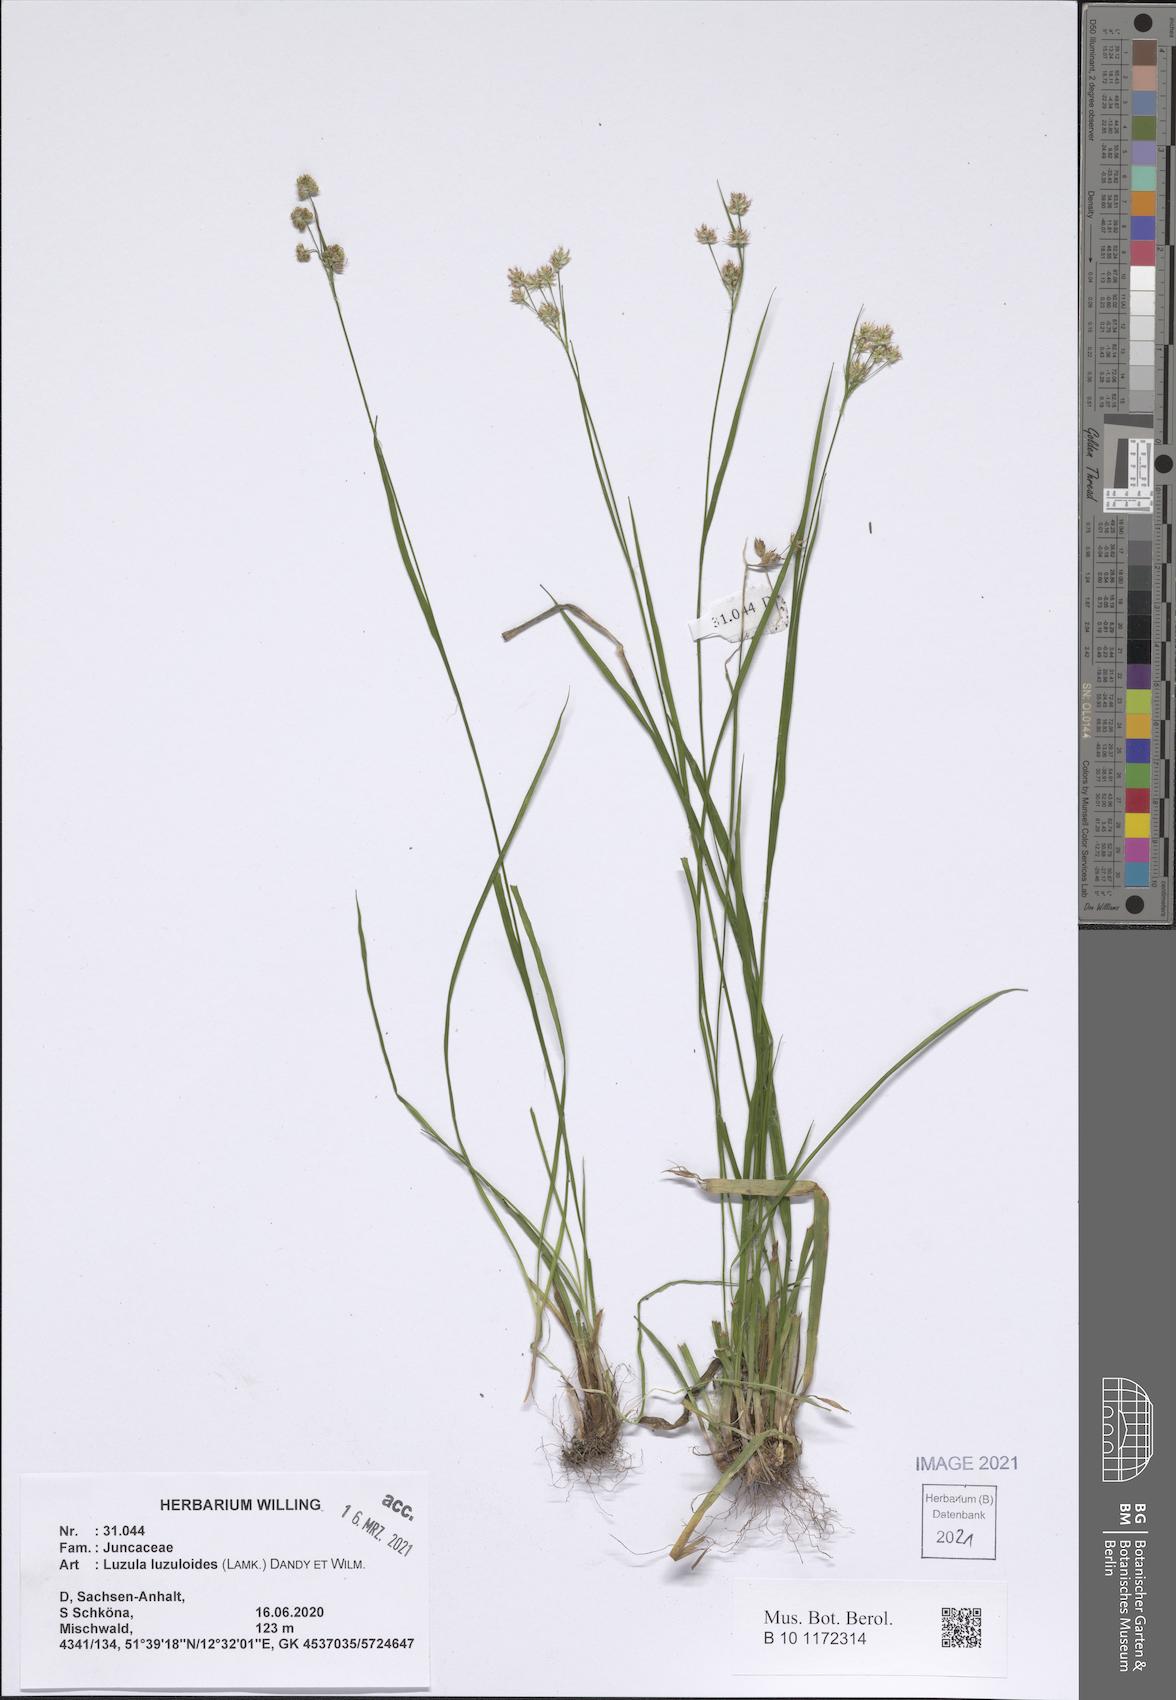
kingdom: Plantae
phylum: Tracheophyta
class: Liliopsida
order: Poales
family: Juncaceae
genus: Luzula
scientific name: Luzula luzuloides
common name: White wood-rush
